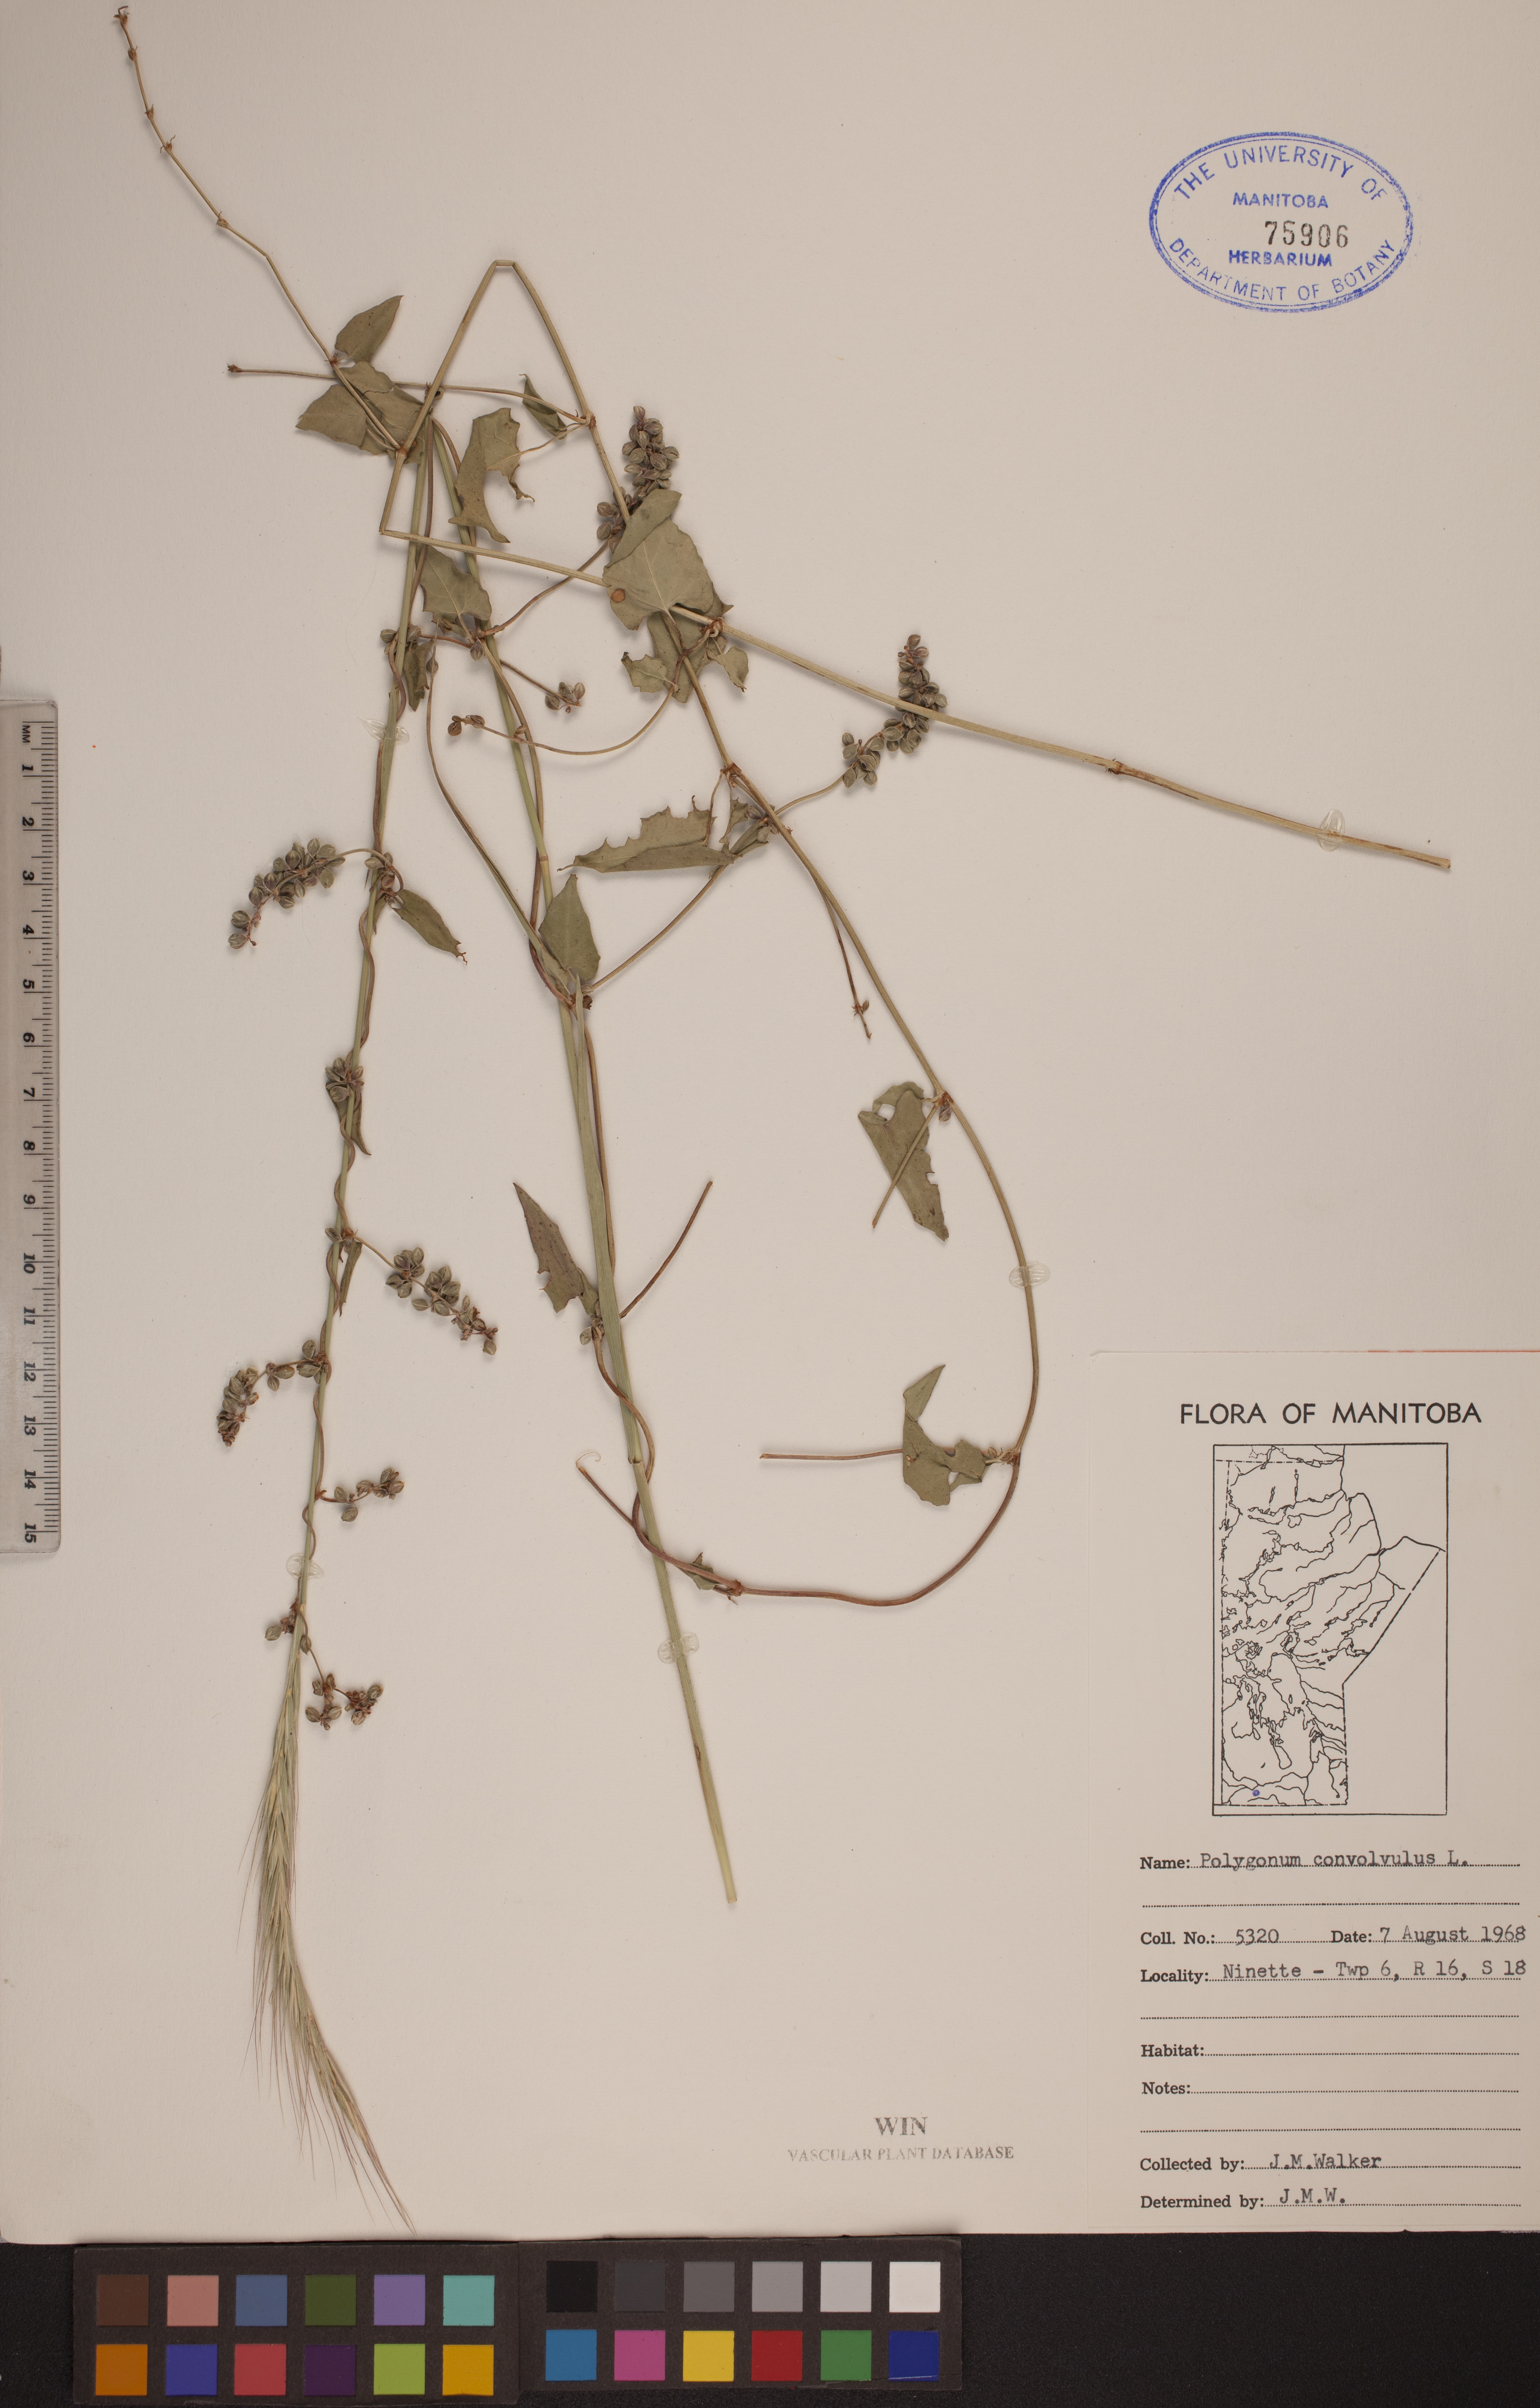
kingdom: Plantae
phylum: Tracheophyta
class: Magnoliopsida
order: Caryophyllales
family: Polygonaceae
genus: Fallopia
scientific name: Fallopia convolvulus
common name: Black bindweed
